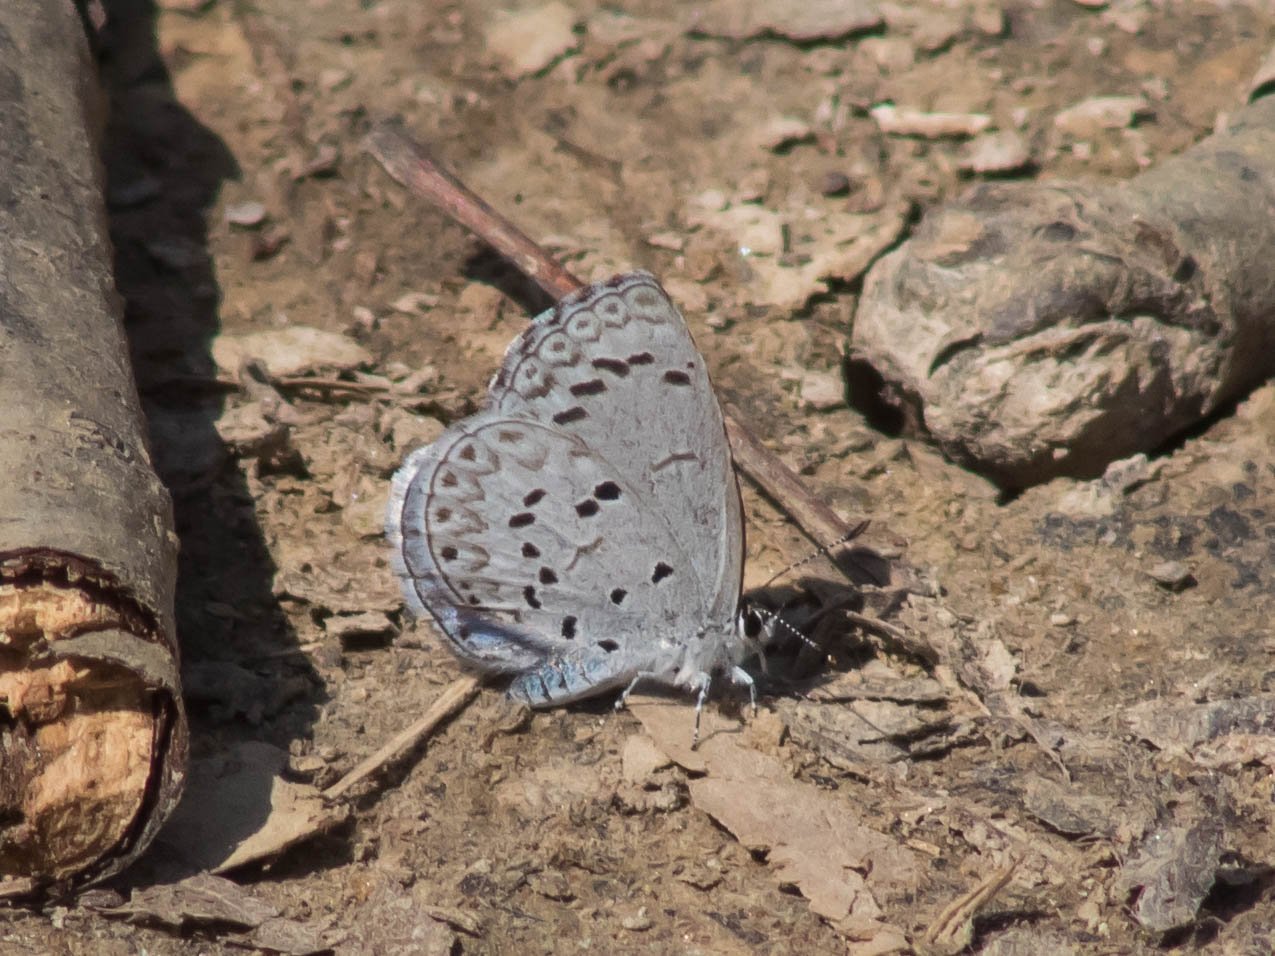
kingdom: Animalia
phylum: Arthropoda
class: Insecta
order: Lepidoptera
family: Lycaenidae
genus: Celastrina
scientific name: Celastrina
